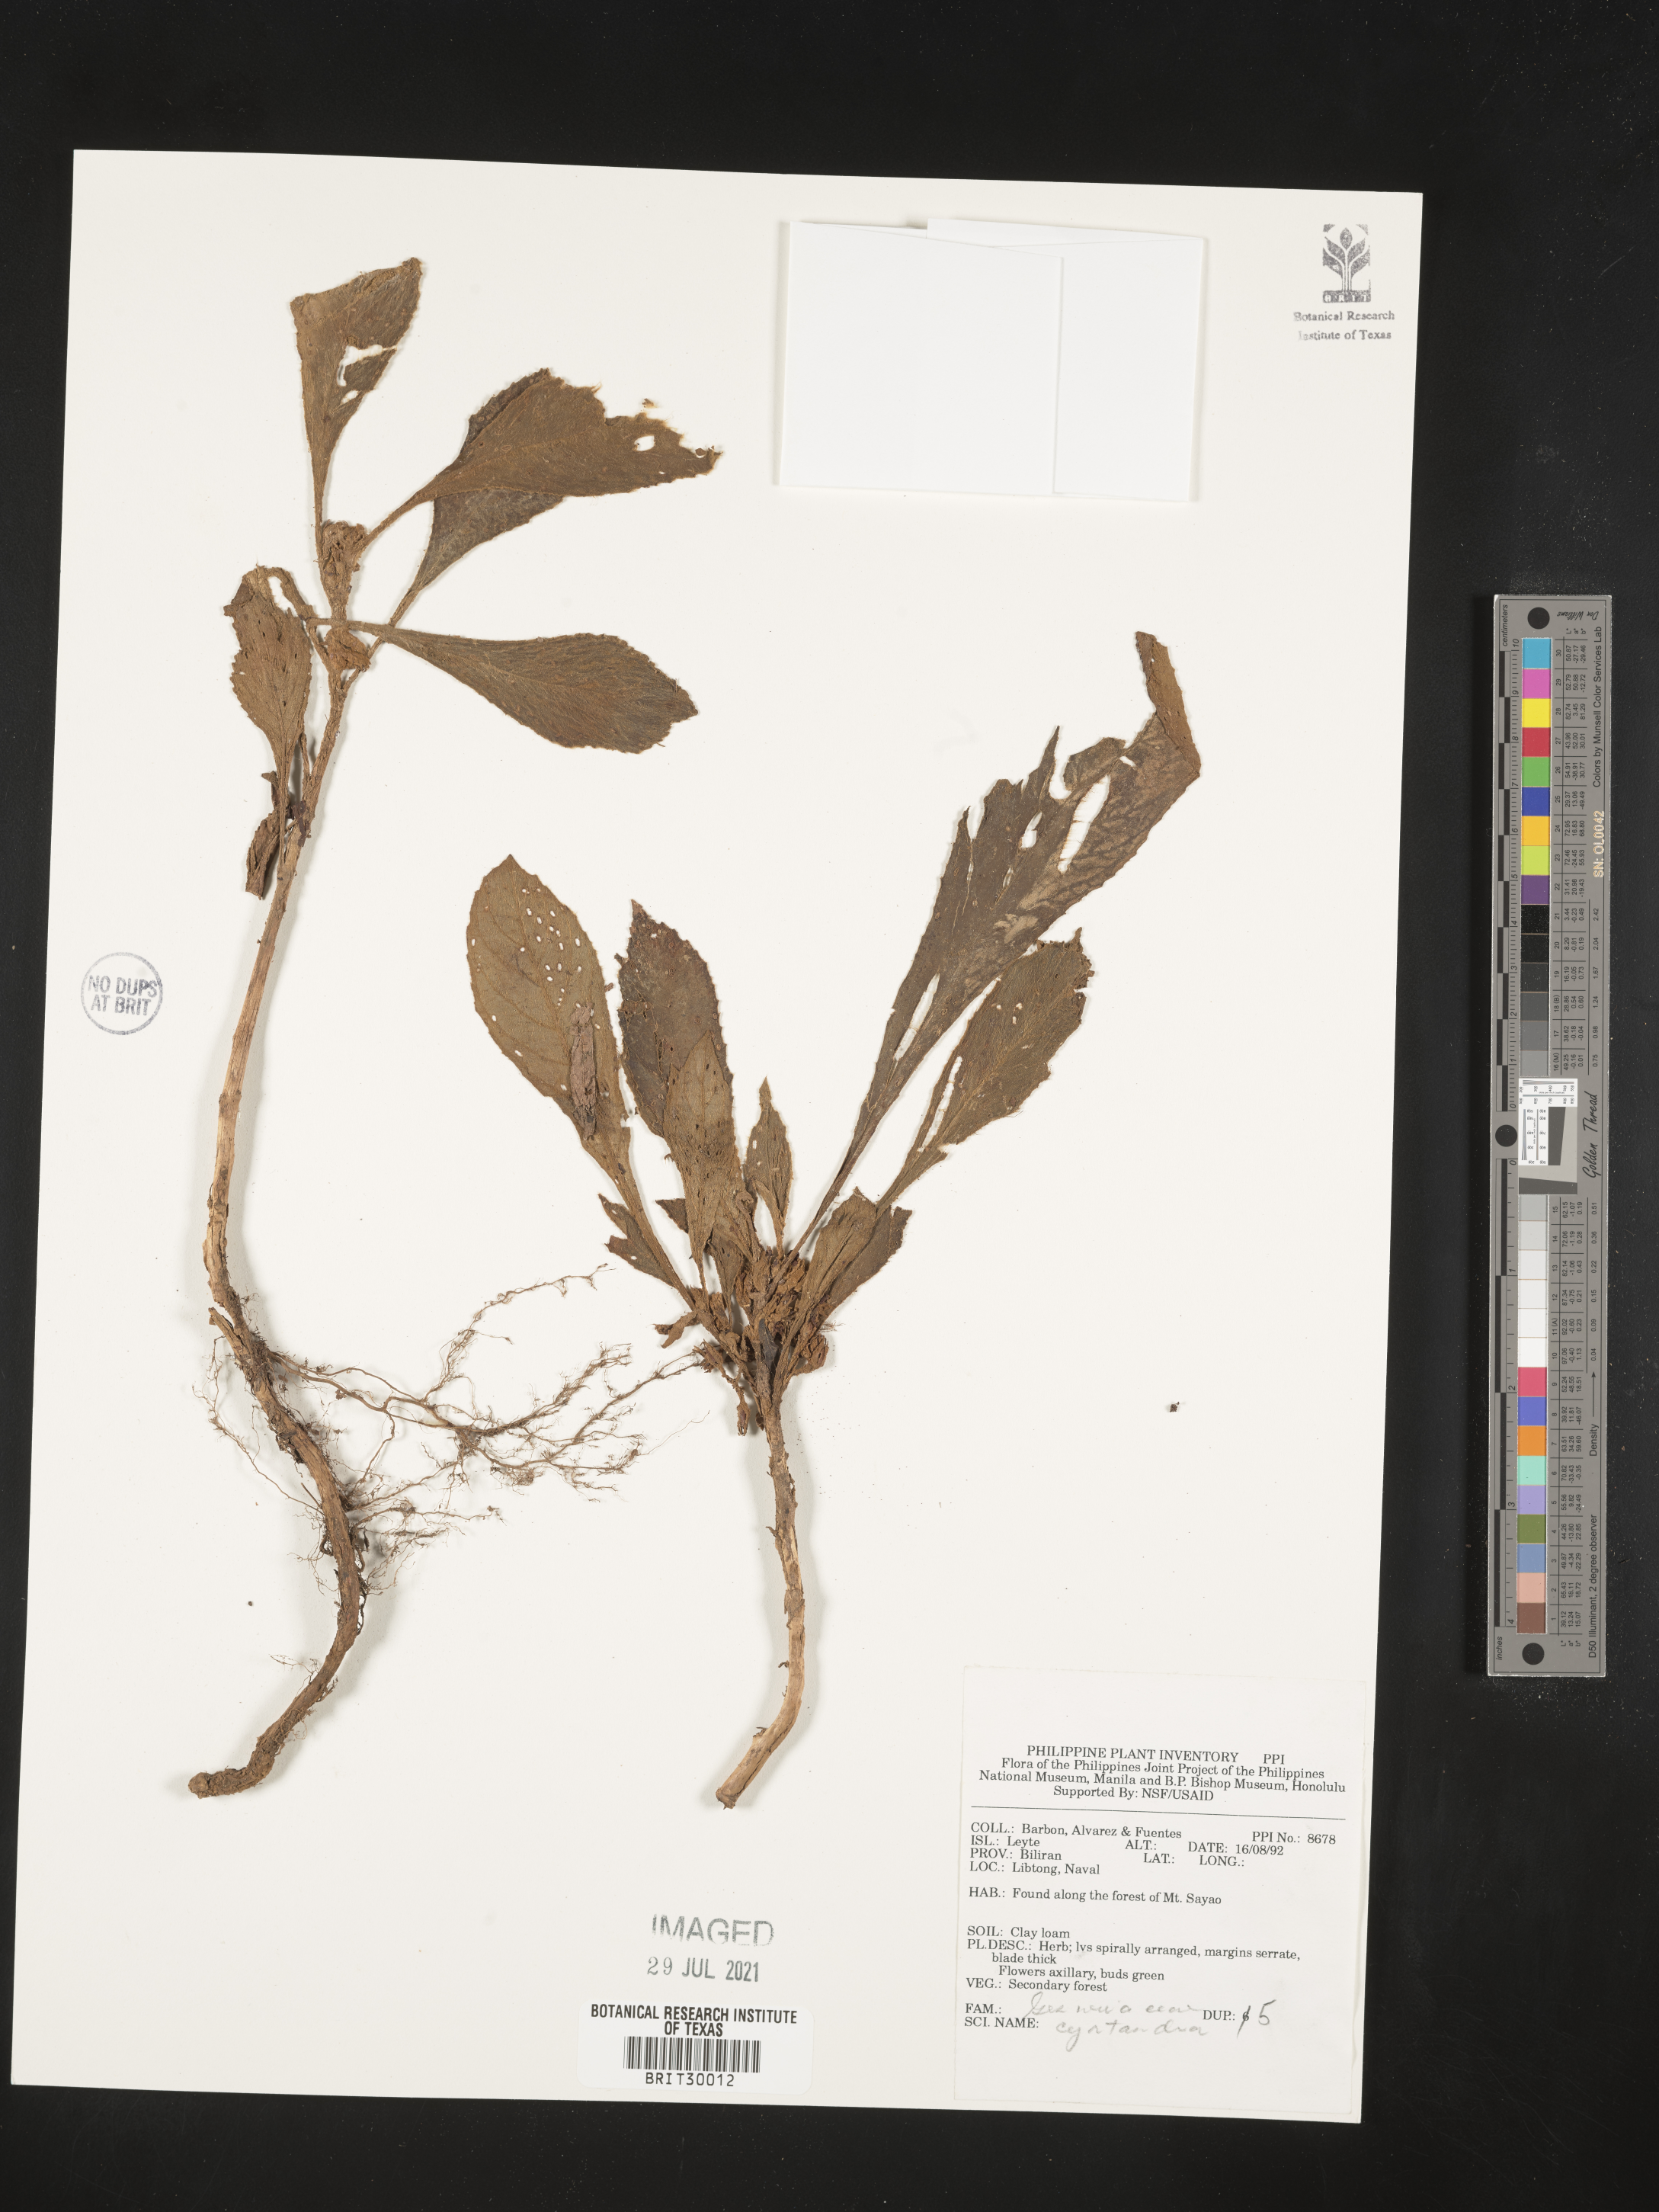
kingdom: Plantae
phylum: Tracheophyta
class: Magnoliopsida
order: Lamiales
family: Gesneriaceae
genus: Cyrtandra
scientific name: Cyrtandra
